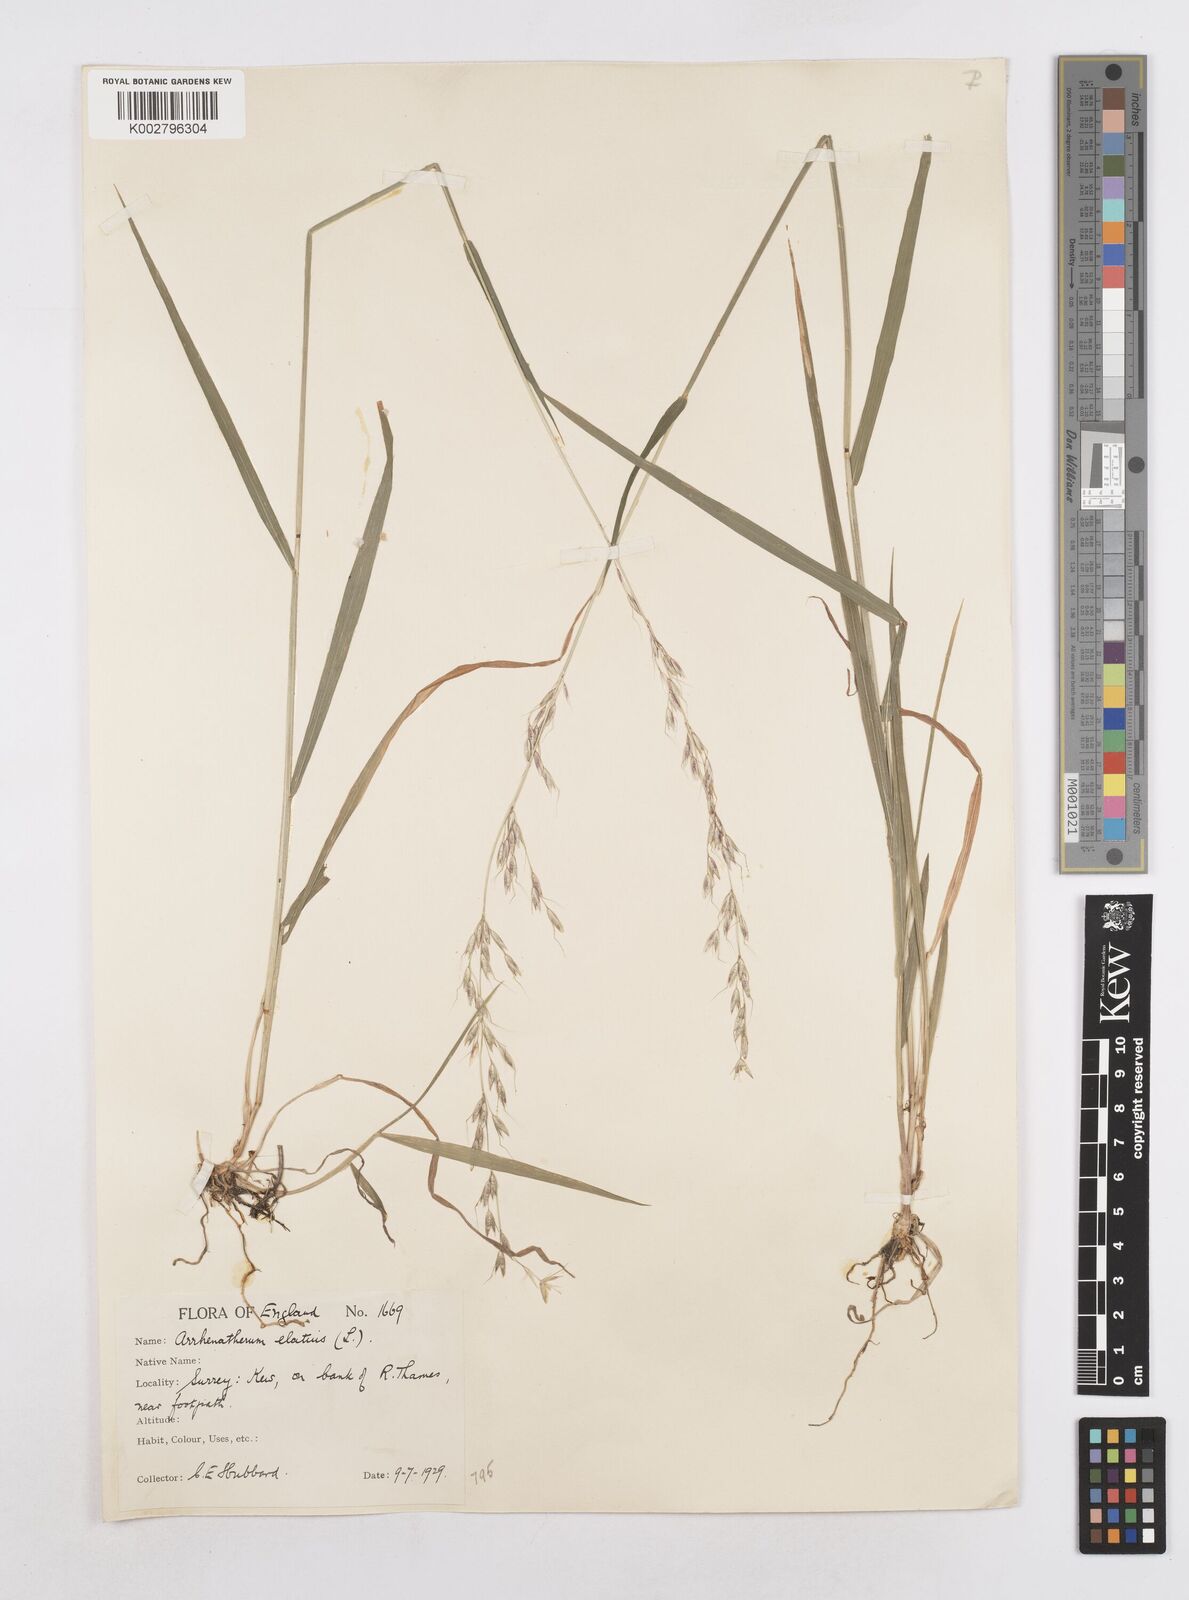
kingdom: Plantae
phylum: Tracheophyta
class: Liliopsida
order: Poales
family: Poaceae
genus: Arrhenatherum
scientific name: Arrhenatherum elatius
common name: Tall oatgrass
